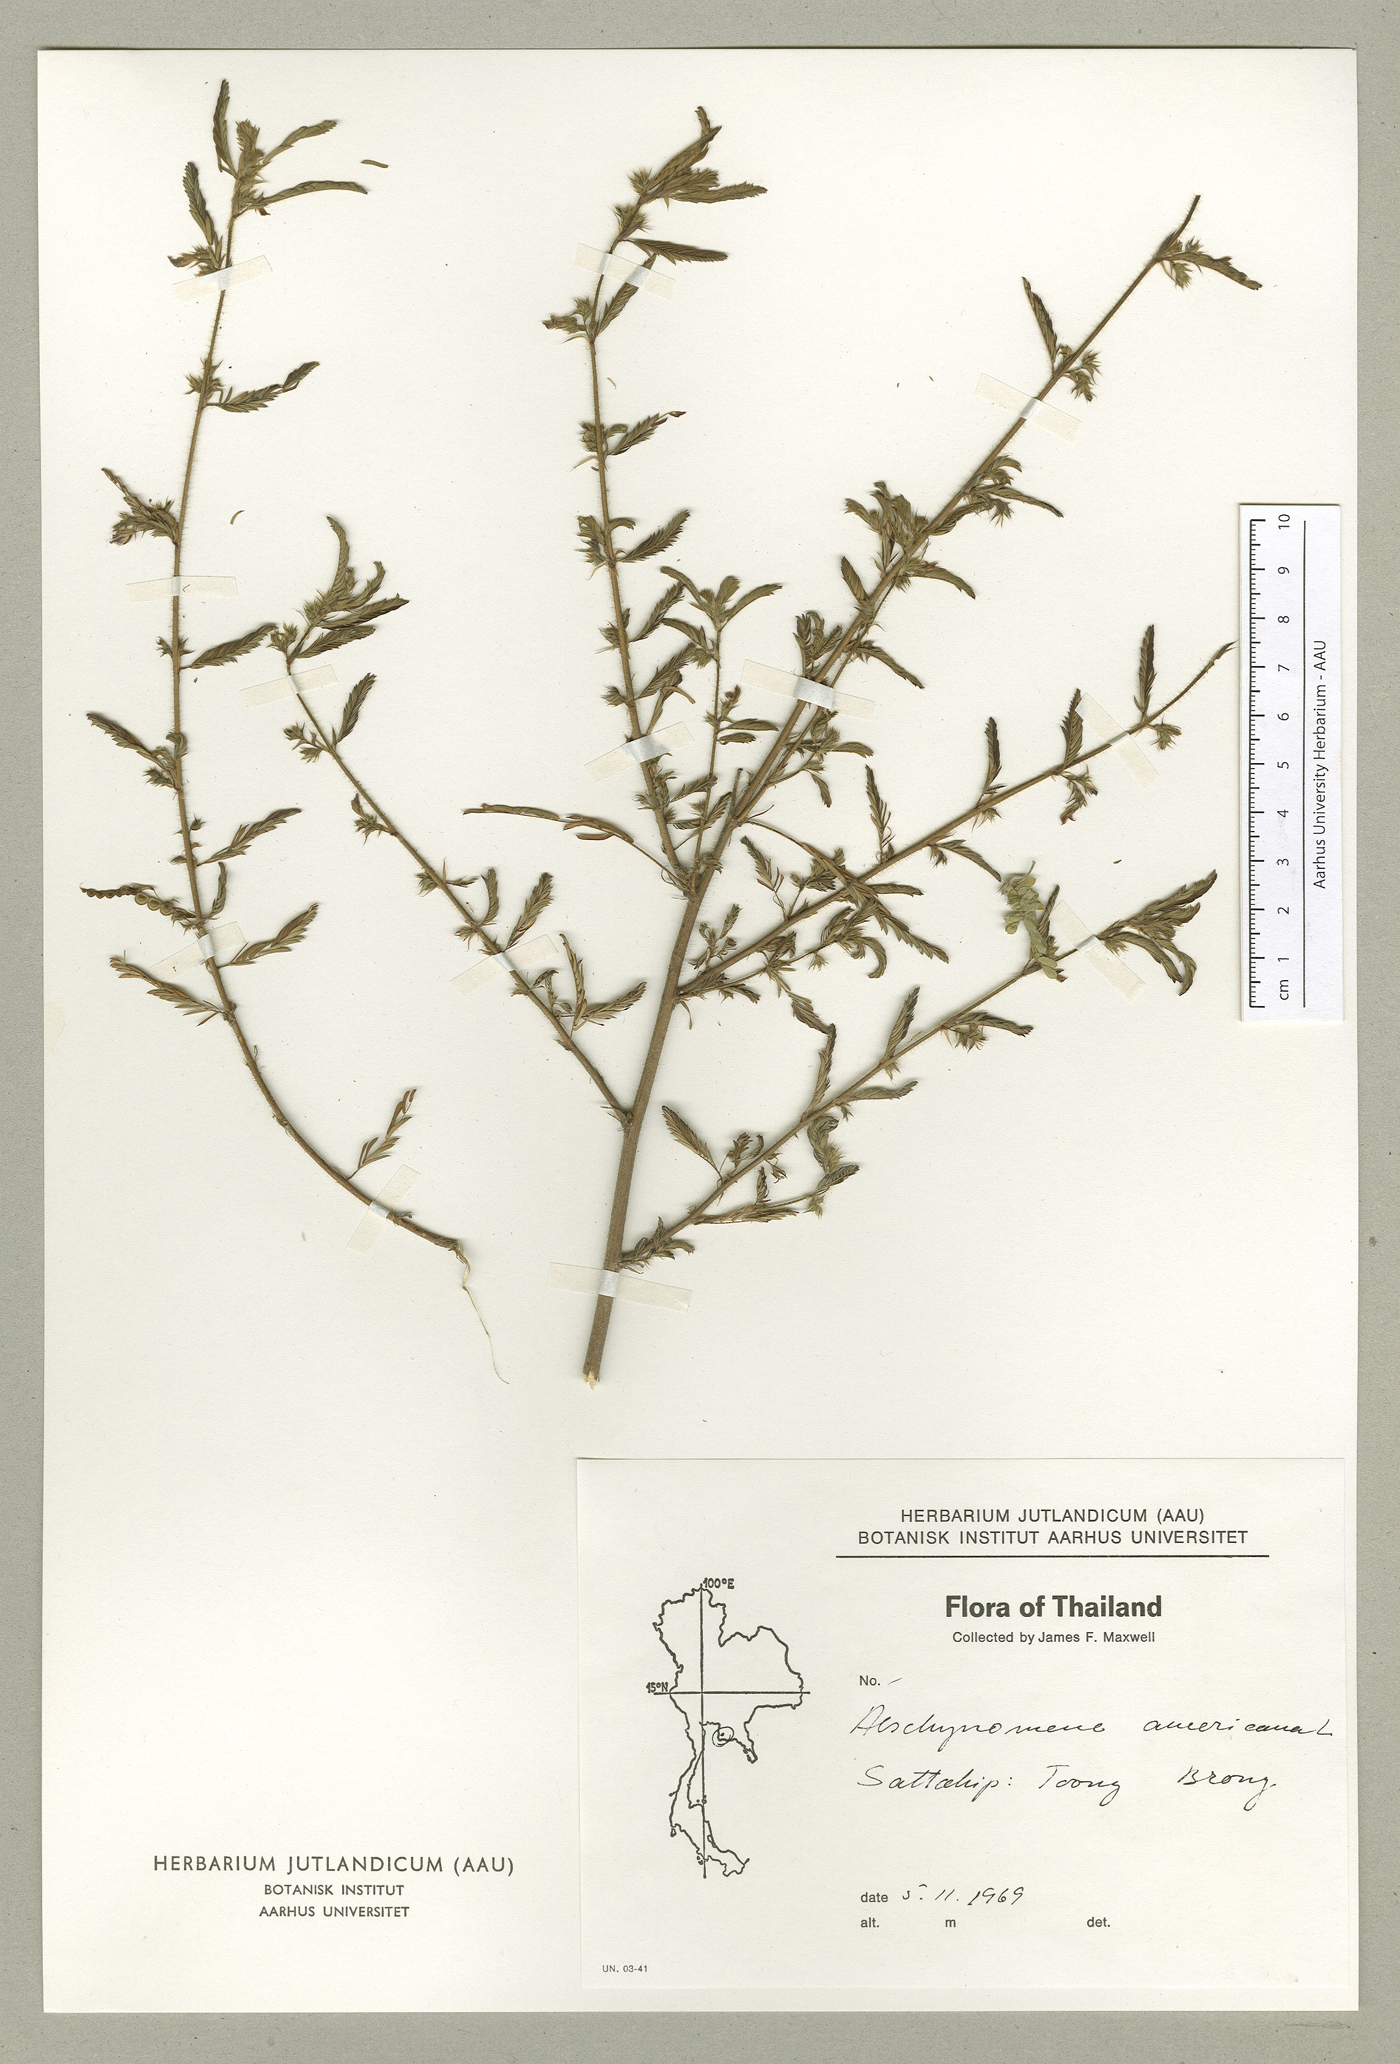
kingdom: Plantae
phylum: Tracheophyta
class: Magnoliopsida
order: Fabales
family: Fabaceae
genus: Aeschynomene
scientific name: Aeschynomene americana
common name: Joint-vetch
